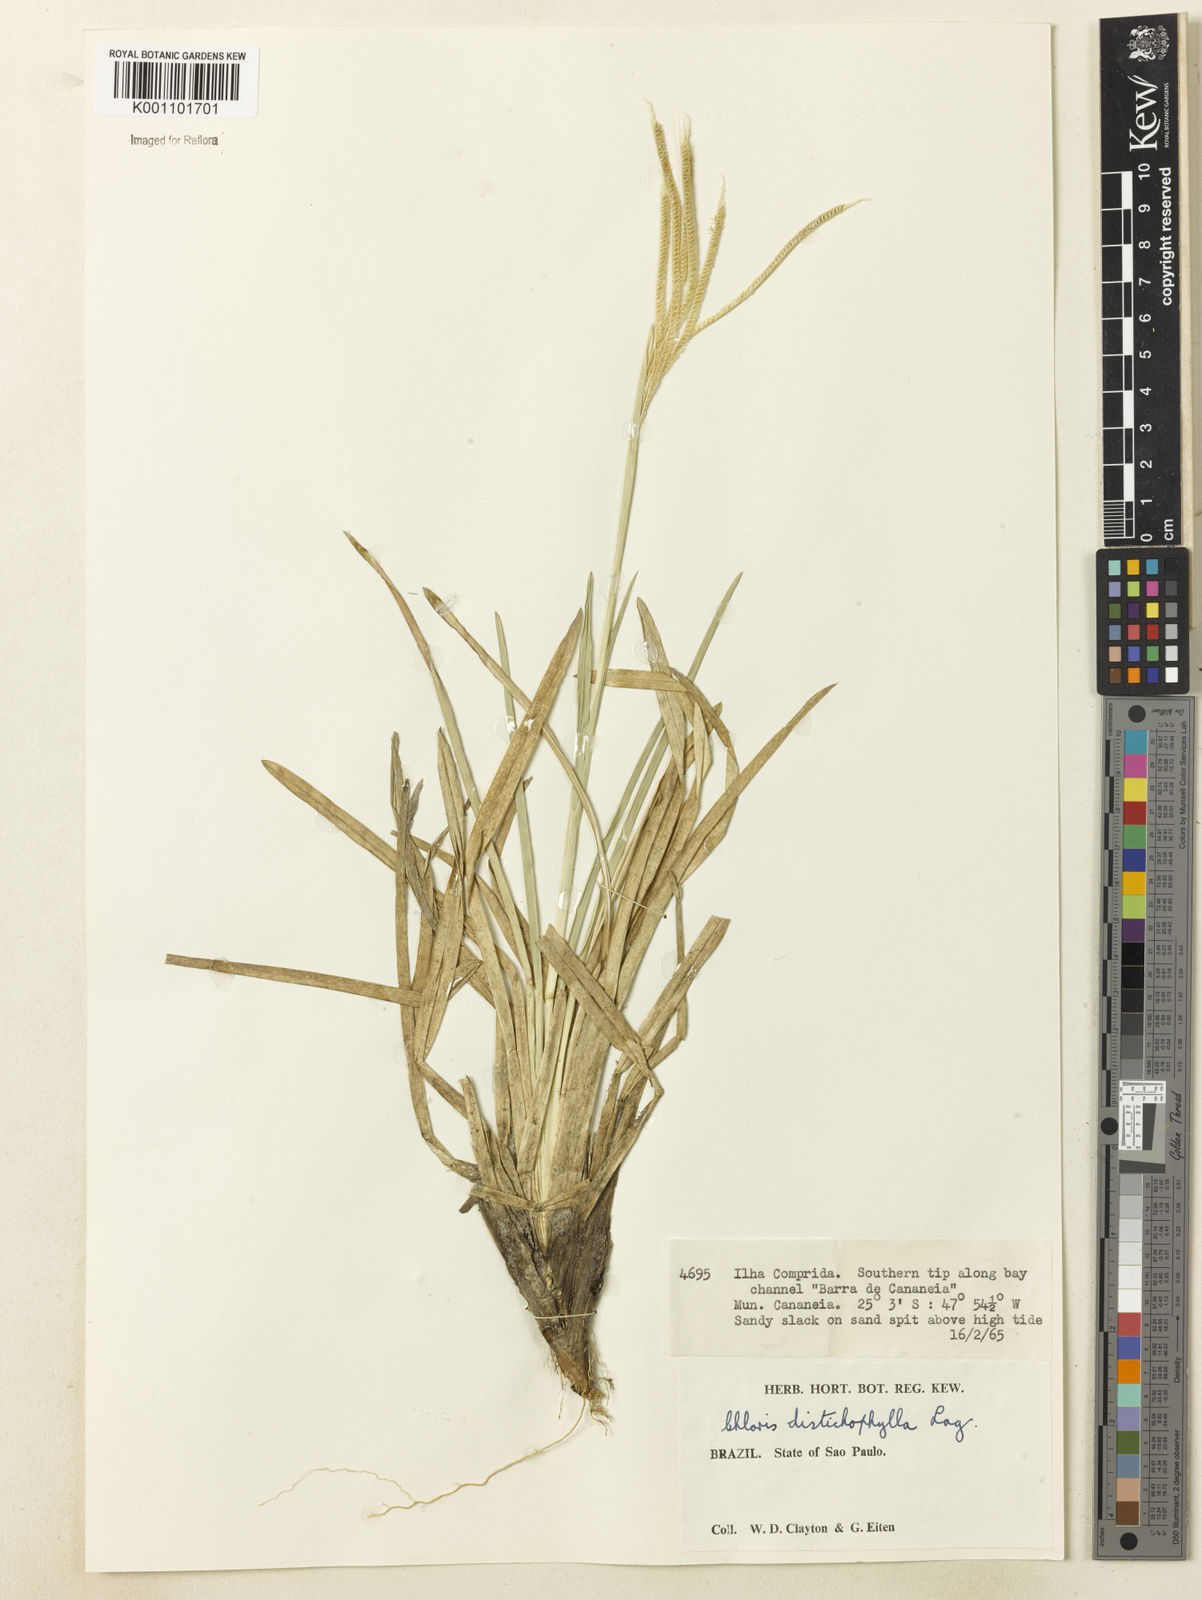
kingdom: Plantae
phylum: Tracheophyta
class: Liliopsida
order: Poales
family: Poaceae
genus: Eustachys
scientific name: Eustachys retusa
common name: Argentine fingergrass
